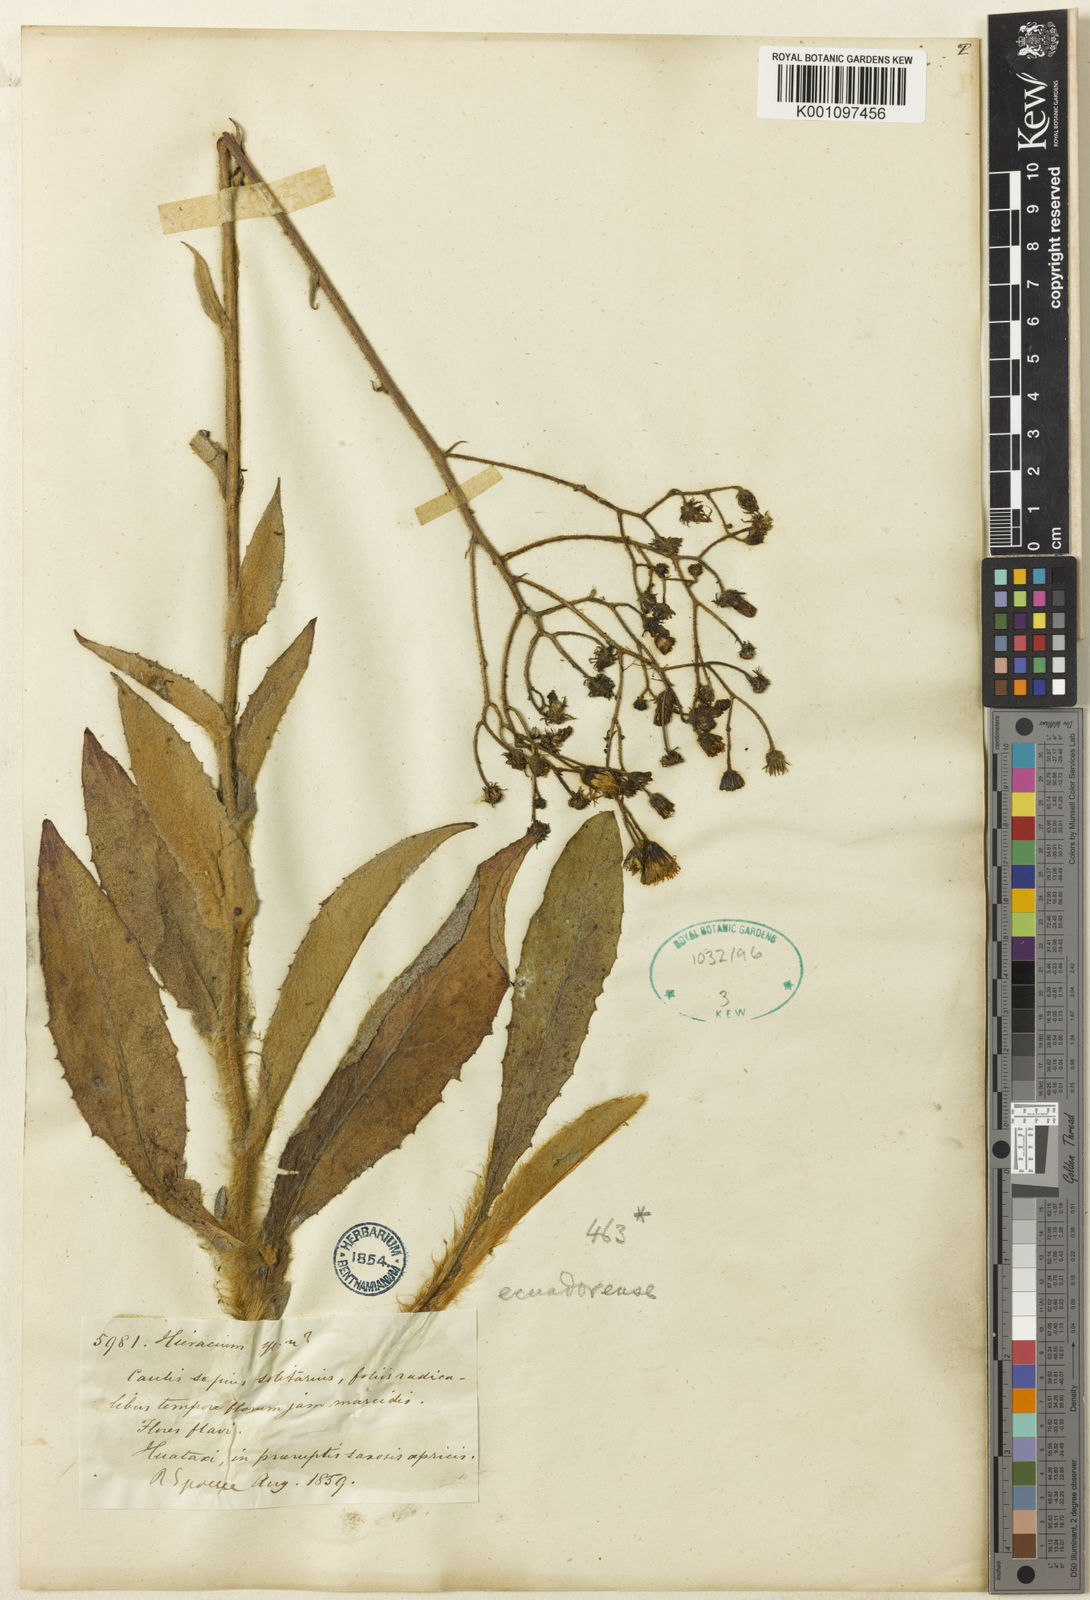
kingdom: Plantae
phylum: Tracheophyta
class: Magnoliopsida
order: Asterales
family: Asteraceae
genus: Hieracium
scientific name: Hieracium
